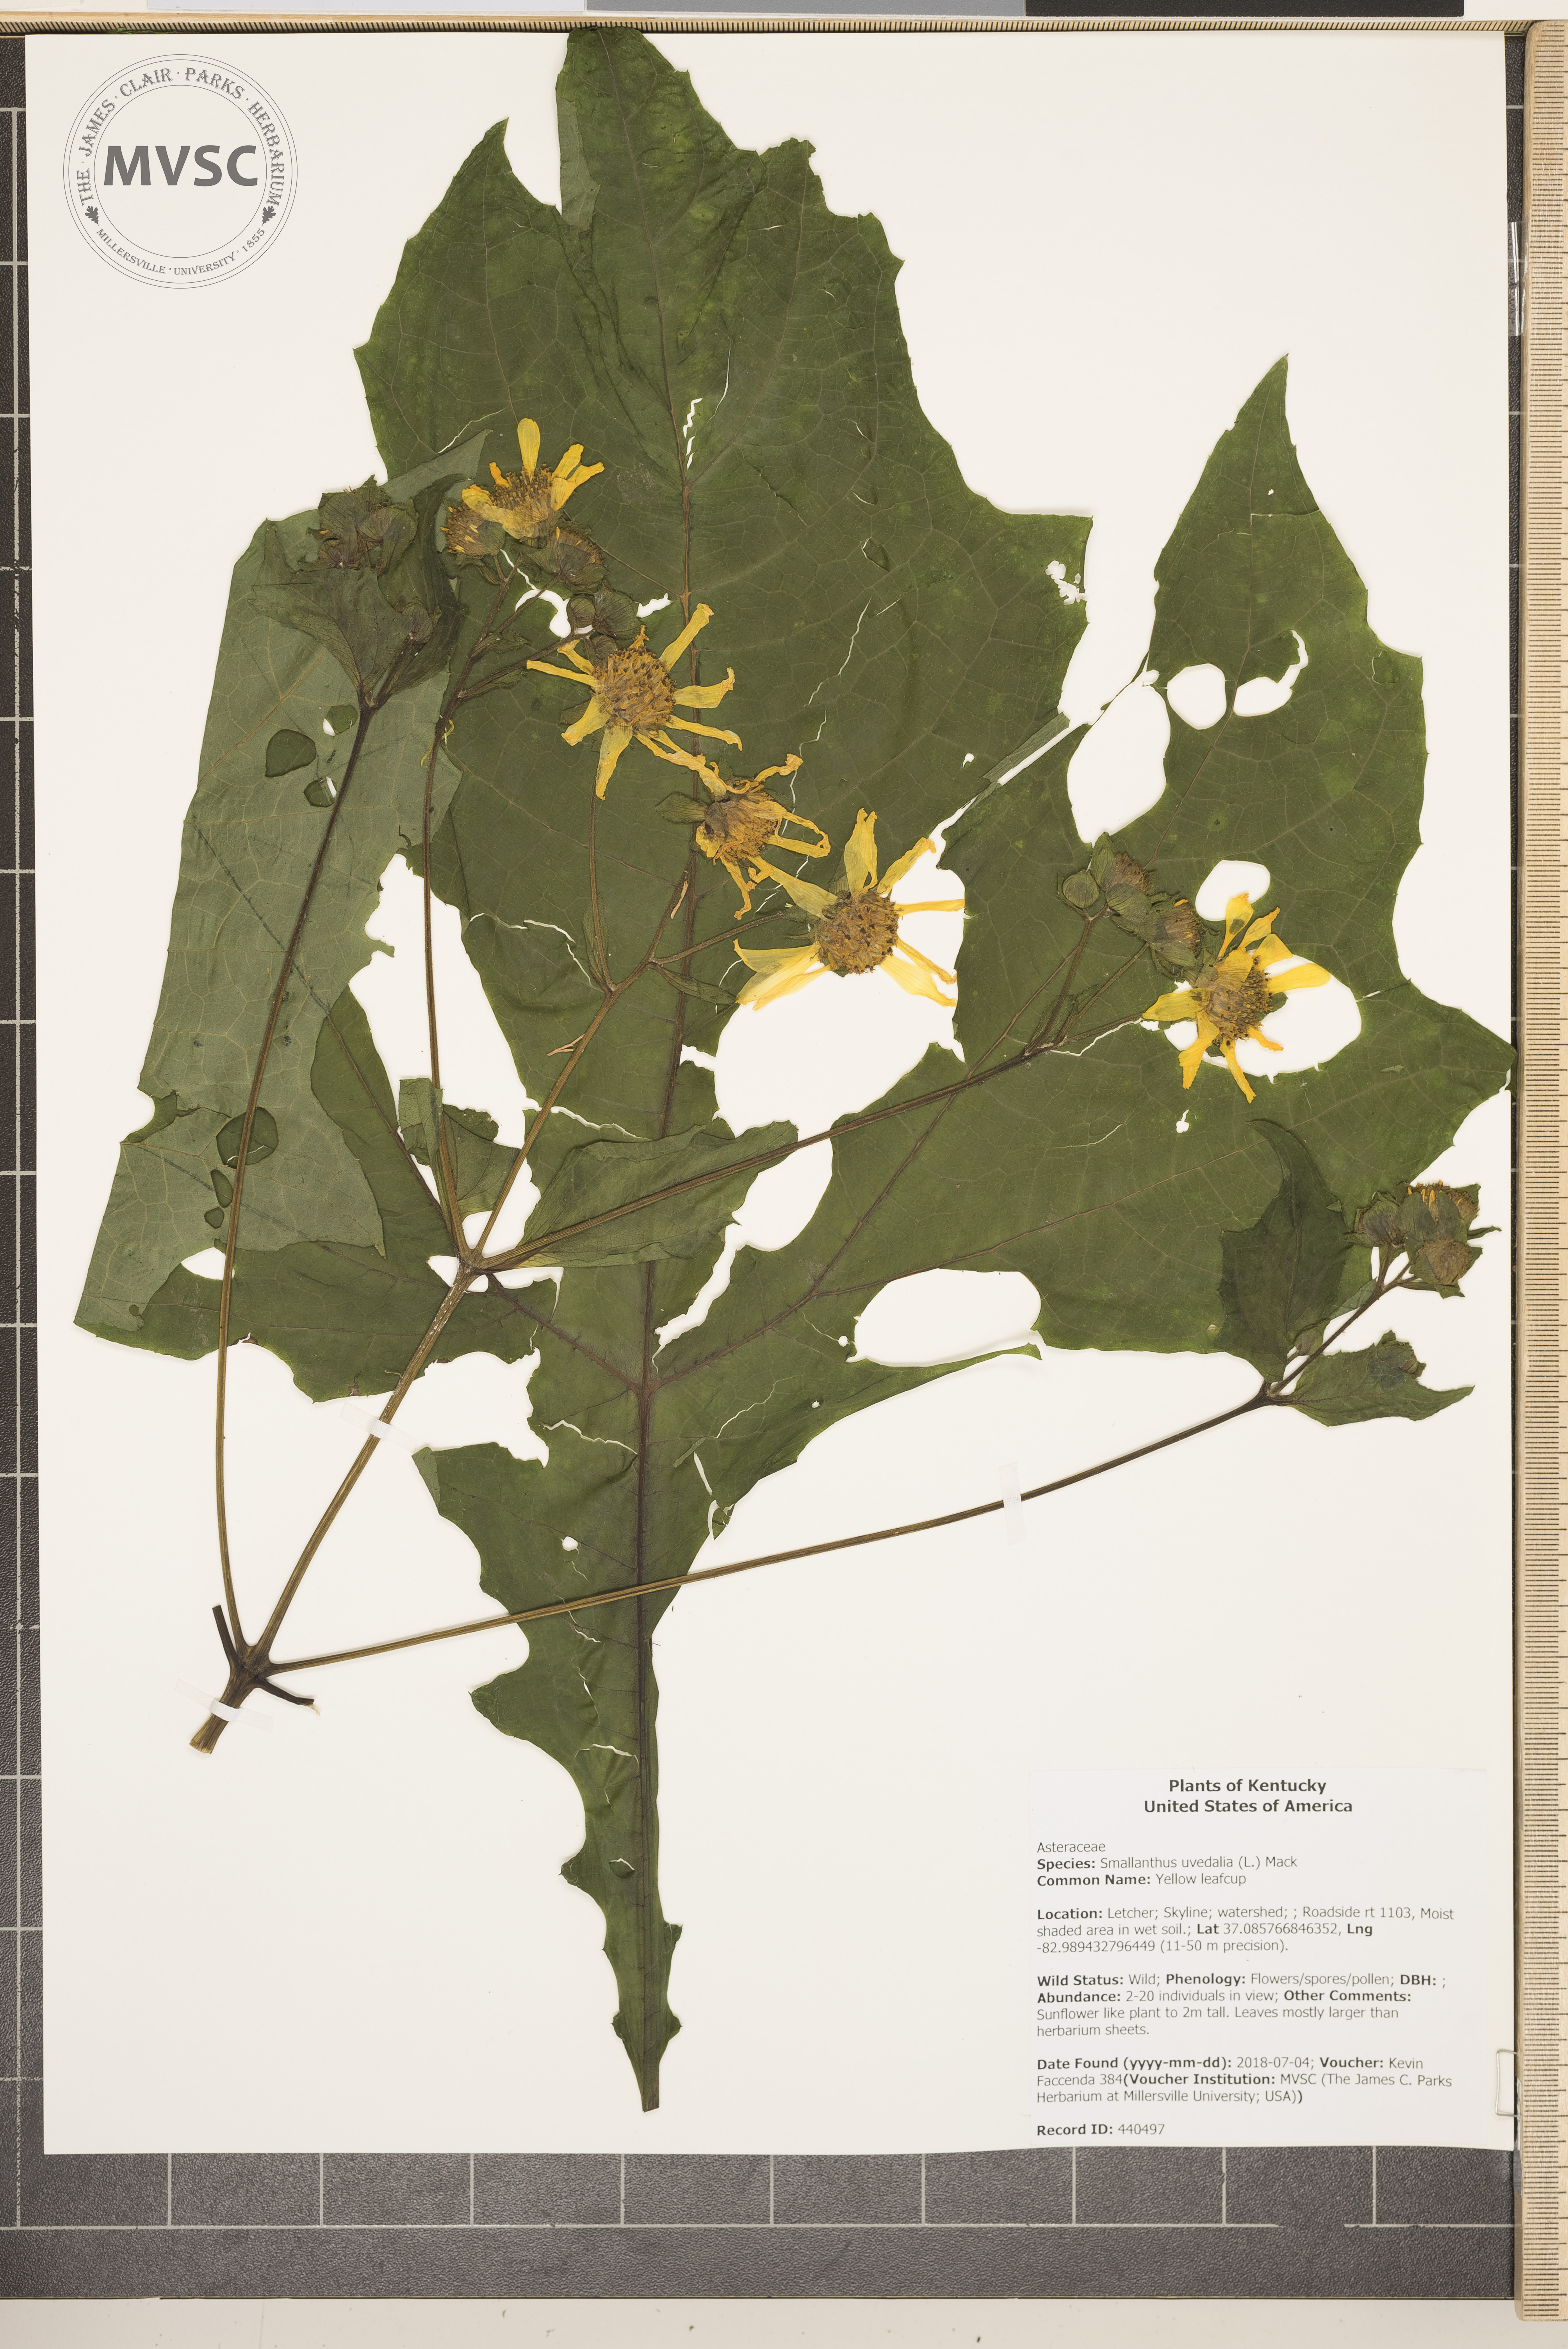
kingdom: Plantae
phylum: Tracheophyta
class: Magnoliopsida
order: Asterales
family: Asteraceae
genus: Smallanthus
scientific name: Smallanthus uvedalia
